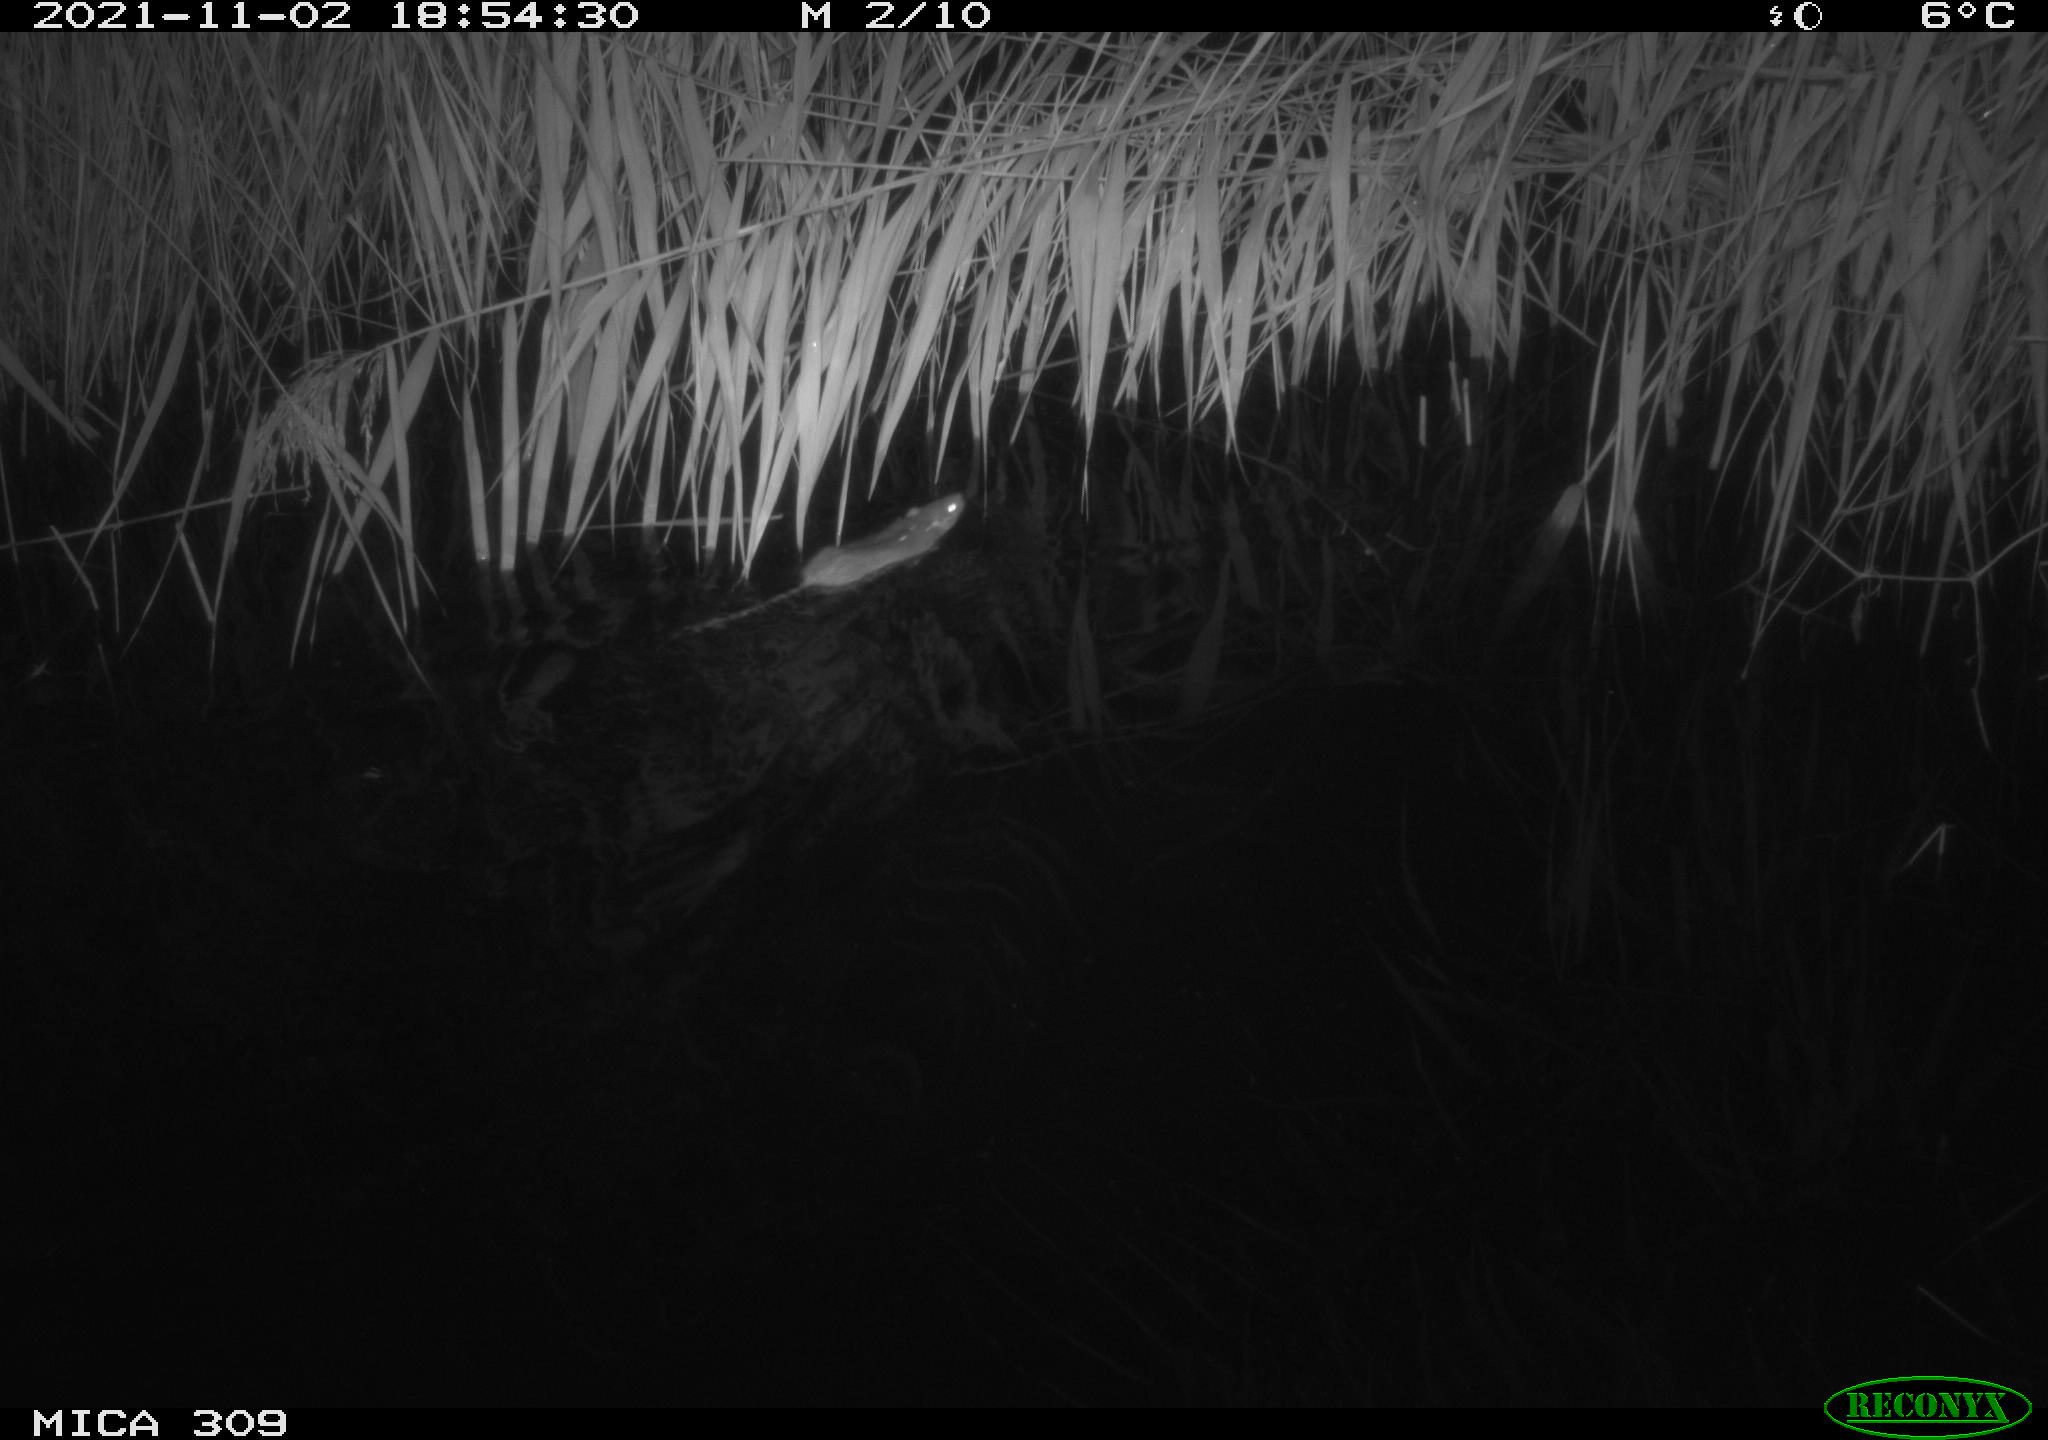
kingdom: Animalia
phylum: Chordata
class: Mammalia
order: Rodentia
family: Muridae
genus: Rattus
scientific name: Rattus norvegicus
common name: Brown rat
